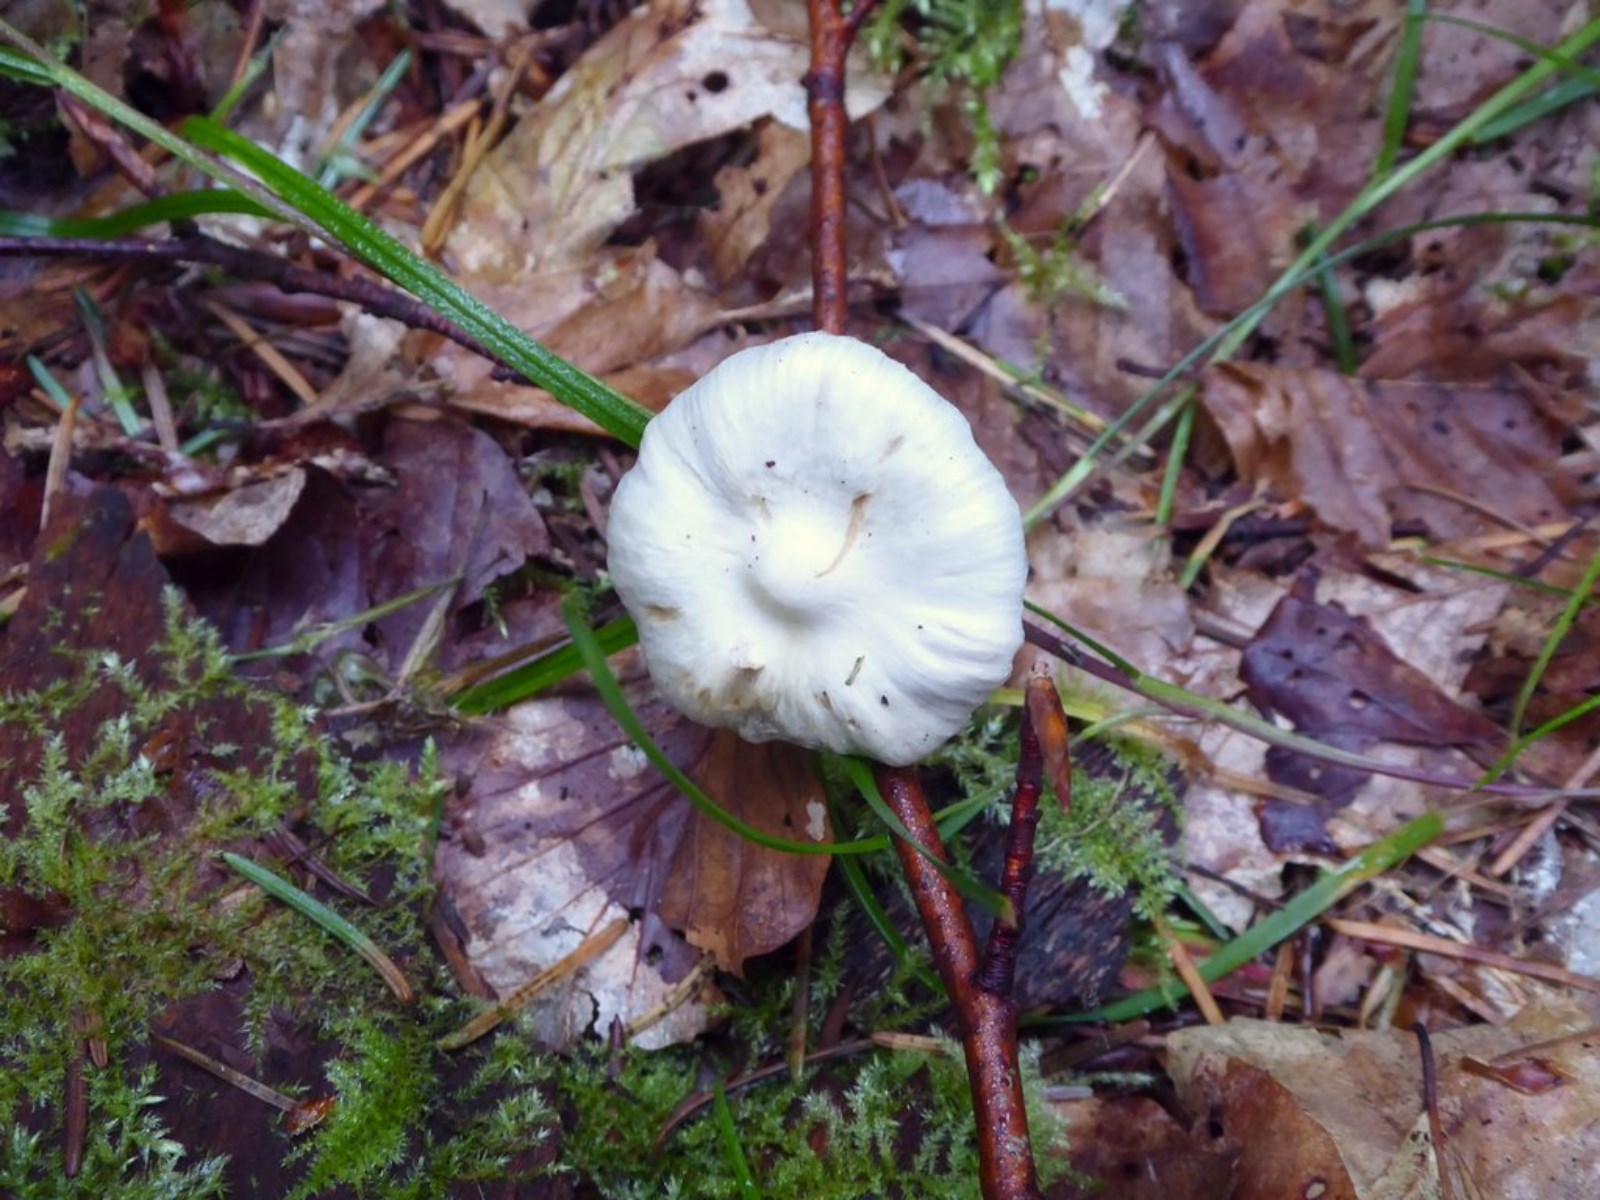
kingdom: Fungi
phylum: Basidiomycota
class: Agaricomycetes
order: Agaricales
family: Inocybaceae
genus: Inocybe
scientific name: Inocybe
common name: almindelig trævlhat
